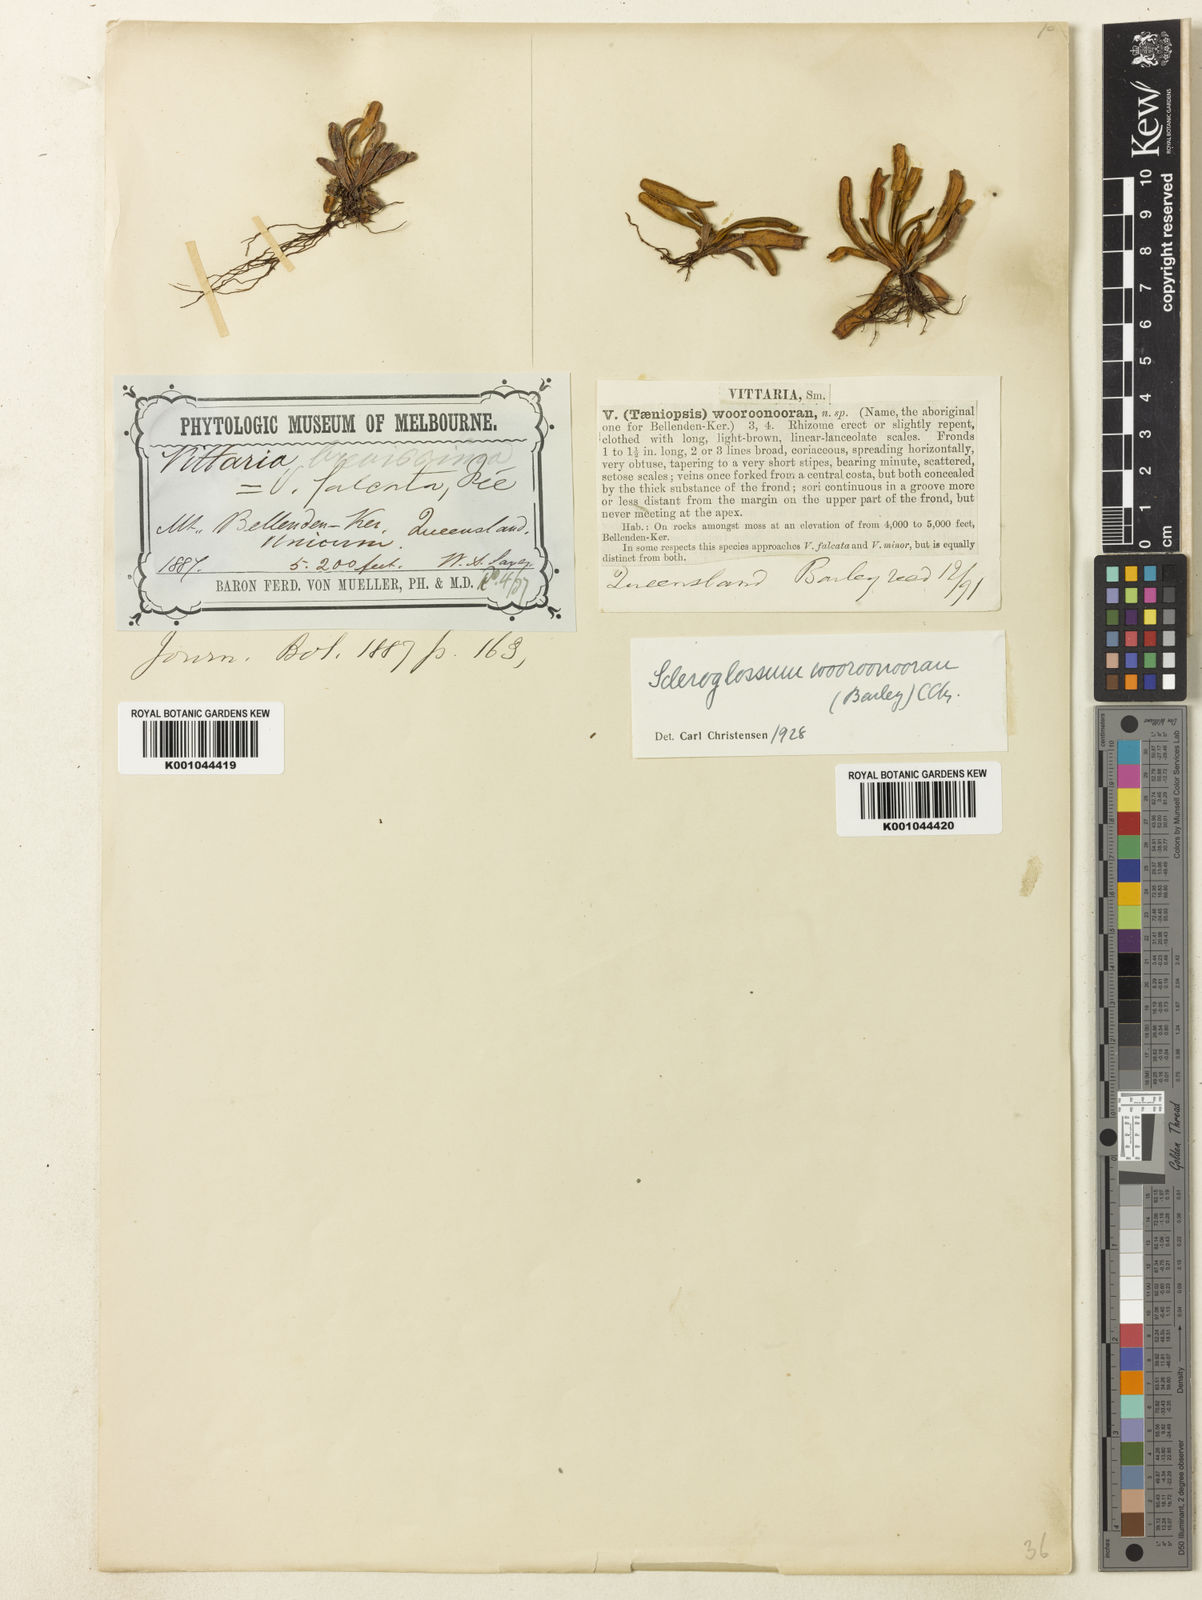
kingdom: Plantae
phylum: Tracheophyta
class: Polypodiopsida
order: Polypodiales
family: Polypodiaceae
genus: Scleroglossum
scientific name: Scleroglossum wooroonooran
